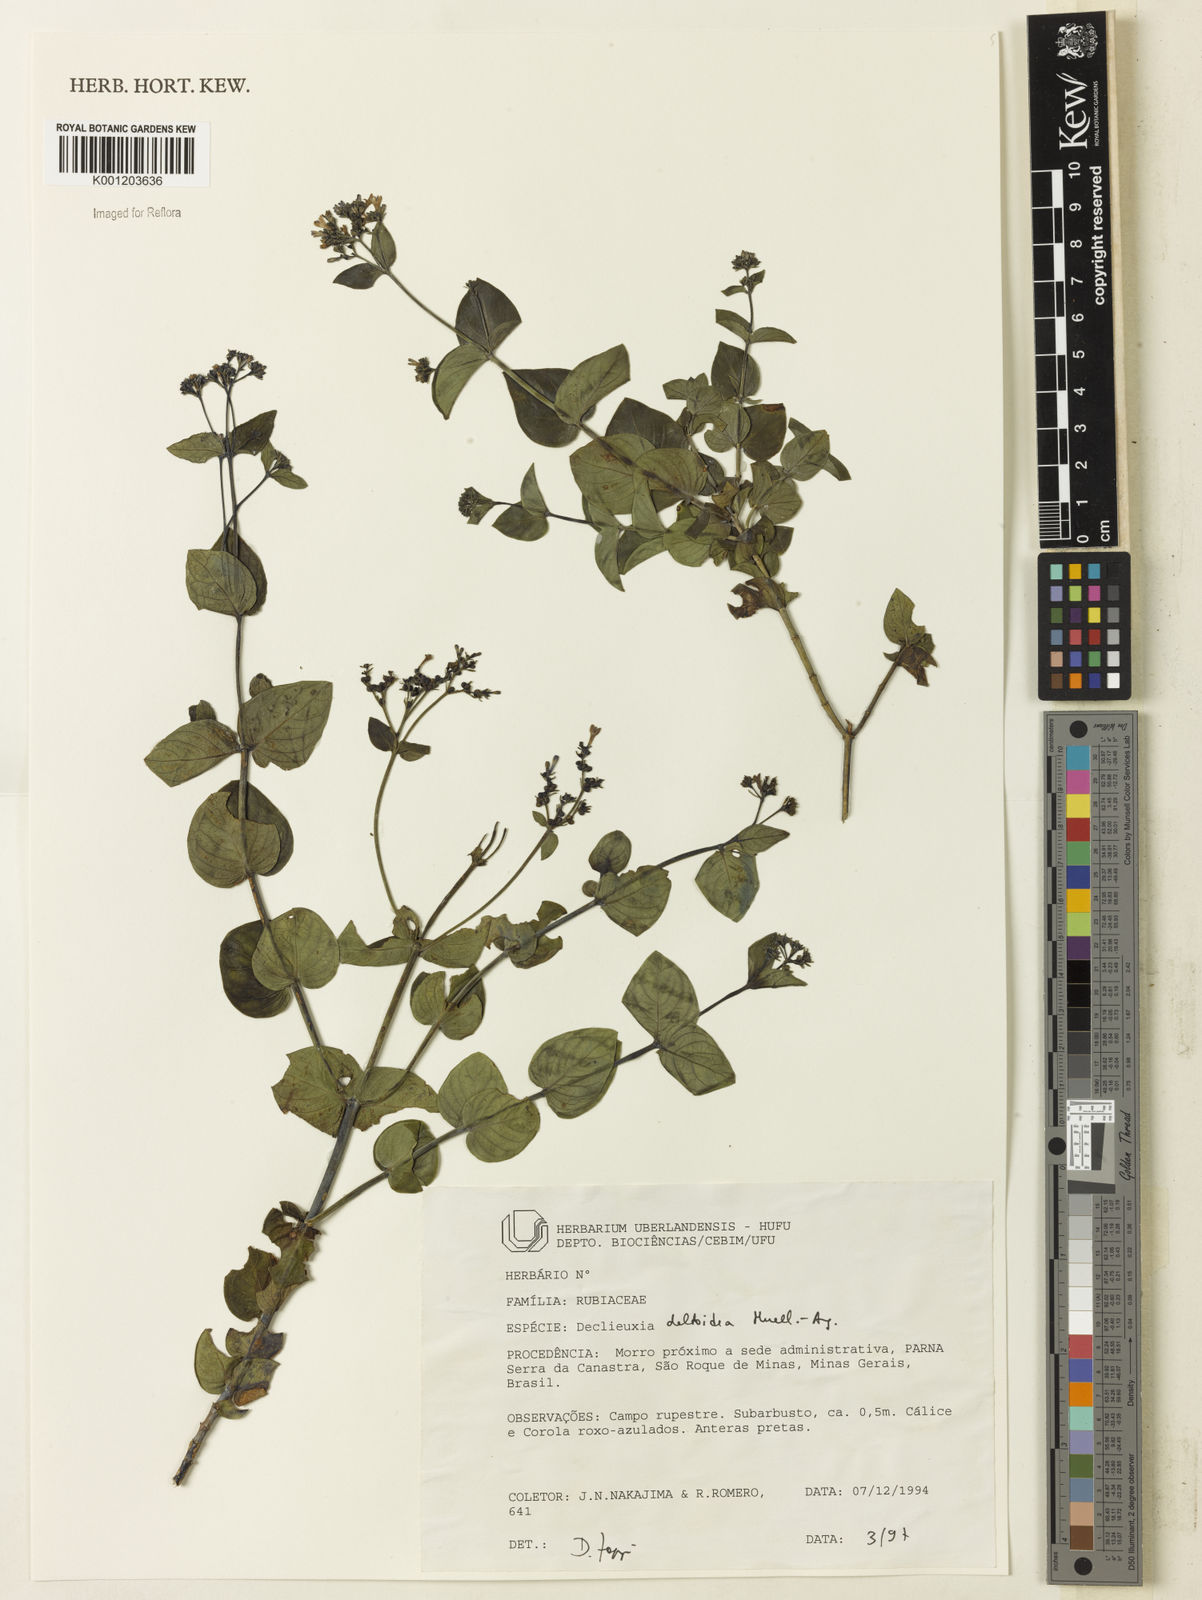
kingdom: Plantae
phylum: Tracheophyta
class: Magnoliopsida
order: Gentianales
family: Rubiaceae
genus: Declieuxia
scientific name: Declieuxia
